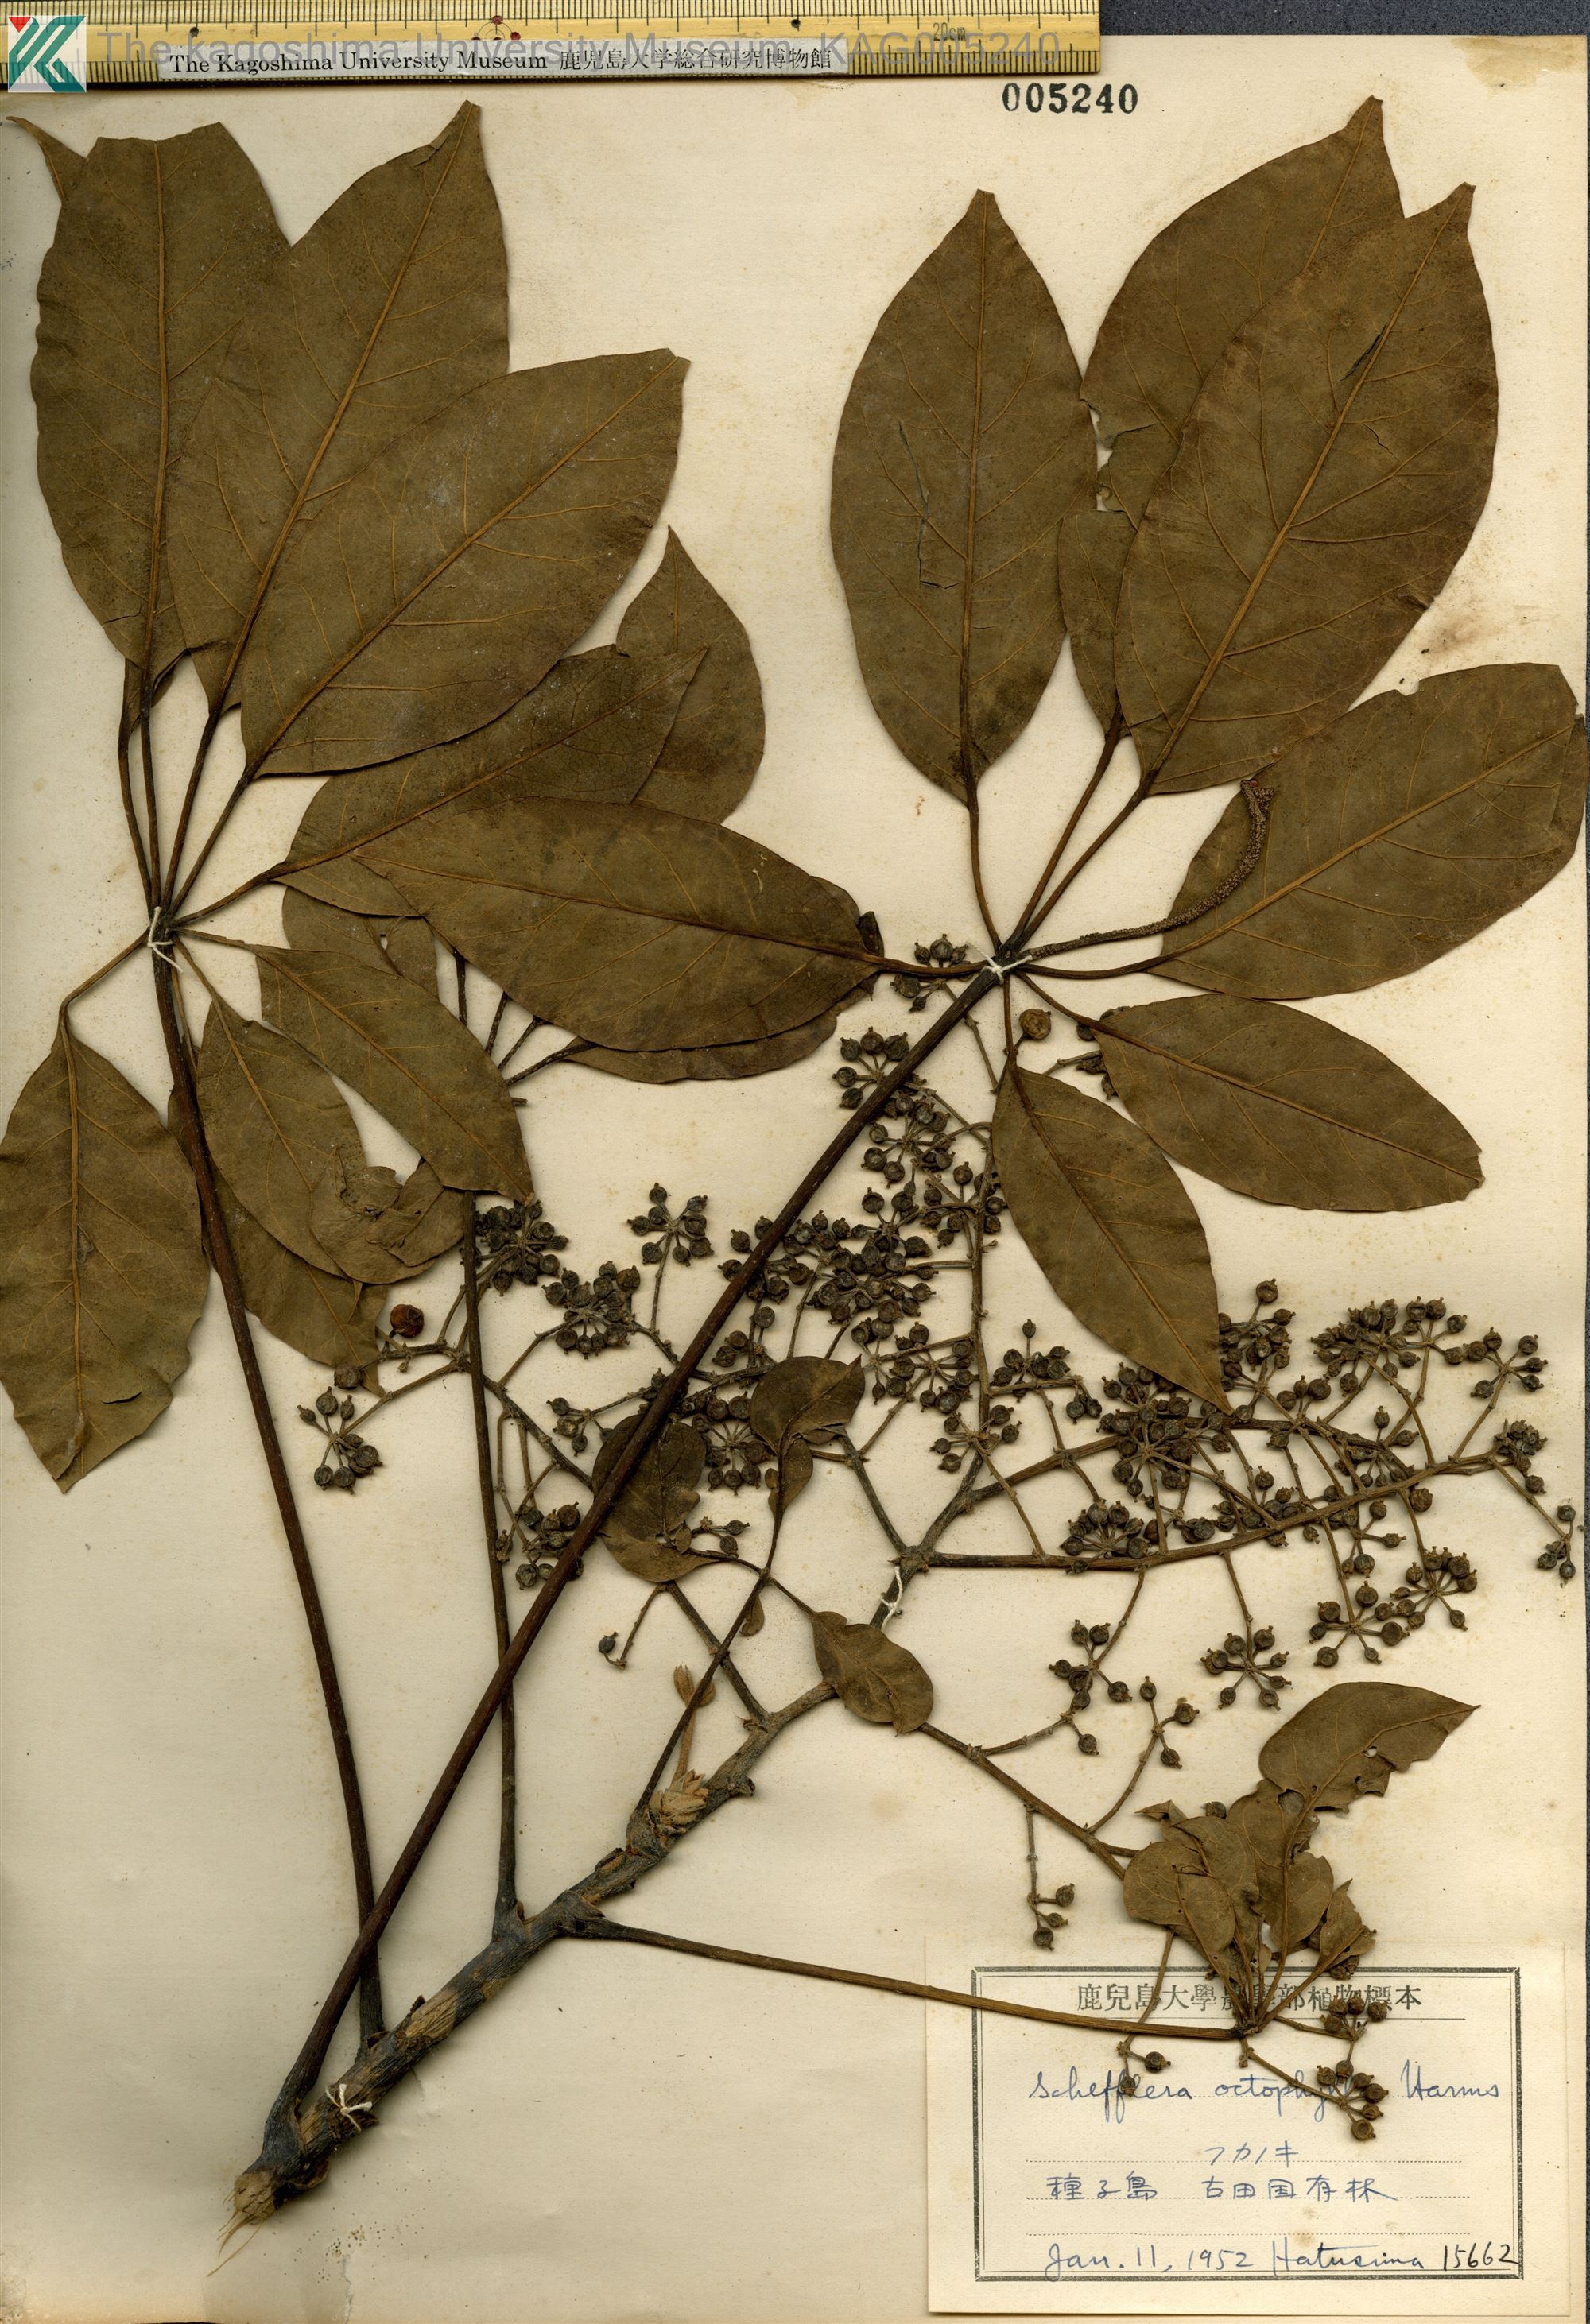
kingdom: Plantae
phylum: Tracheophyta
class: Magnoliopsida
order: Apiales
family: Araliaceae
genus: Heptapleurum
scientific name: Heptapleurum heptaphyllum
